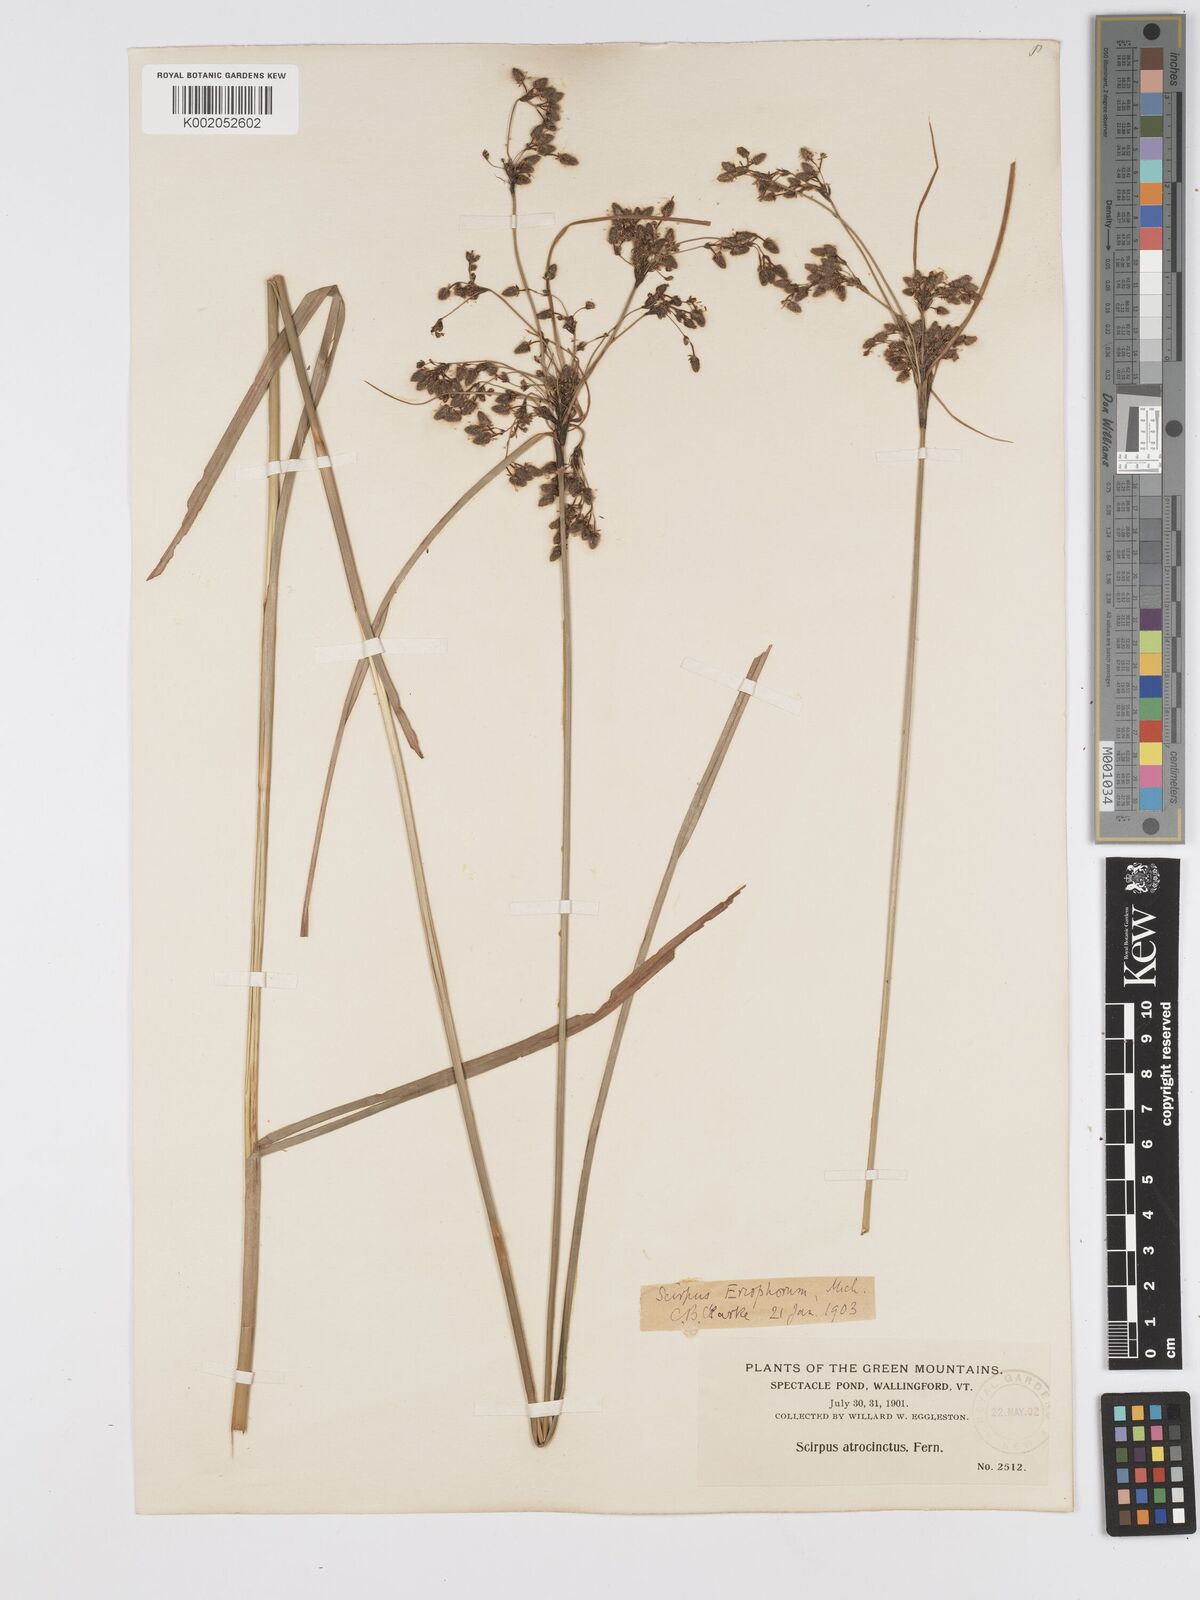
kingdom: Plantae
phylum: Tracheophyta
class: Liliopsida
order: Poales
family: Cyperaceae
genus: Scirpus
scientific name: Scirpus atrocinctus
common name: Black-girdled bulrush
